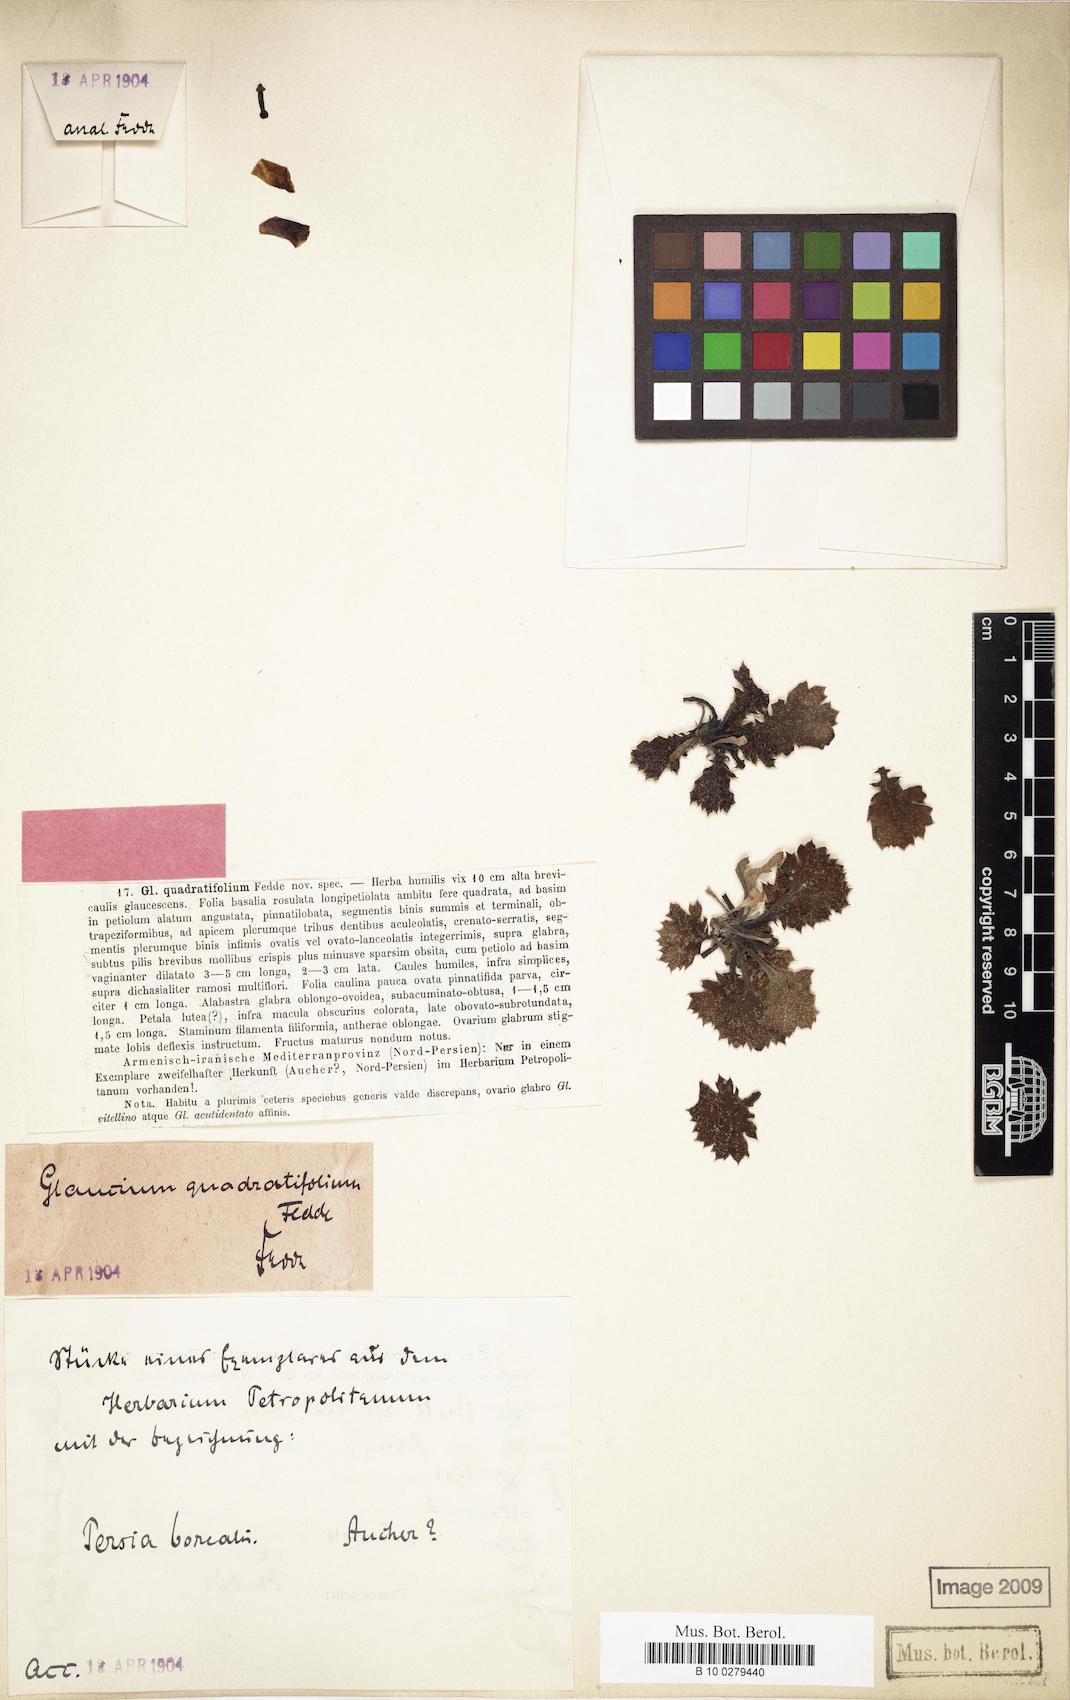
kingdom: Plantae
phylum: Tracheophyta
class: Magnoliopsida
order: Ranunculales
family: Papaveraceae
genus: Glaucium
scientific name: Glaucium quadratifolium
